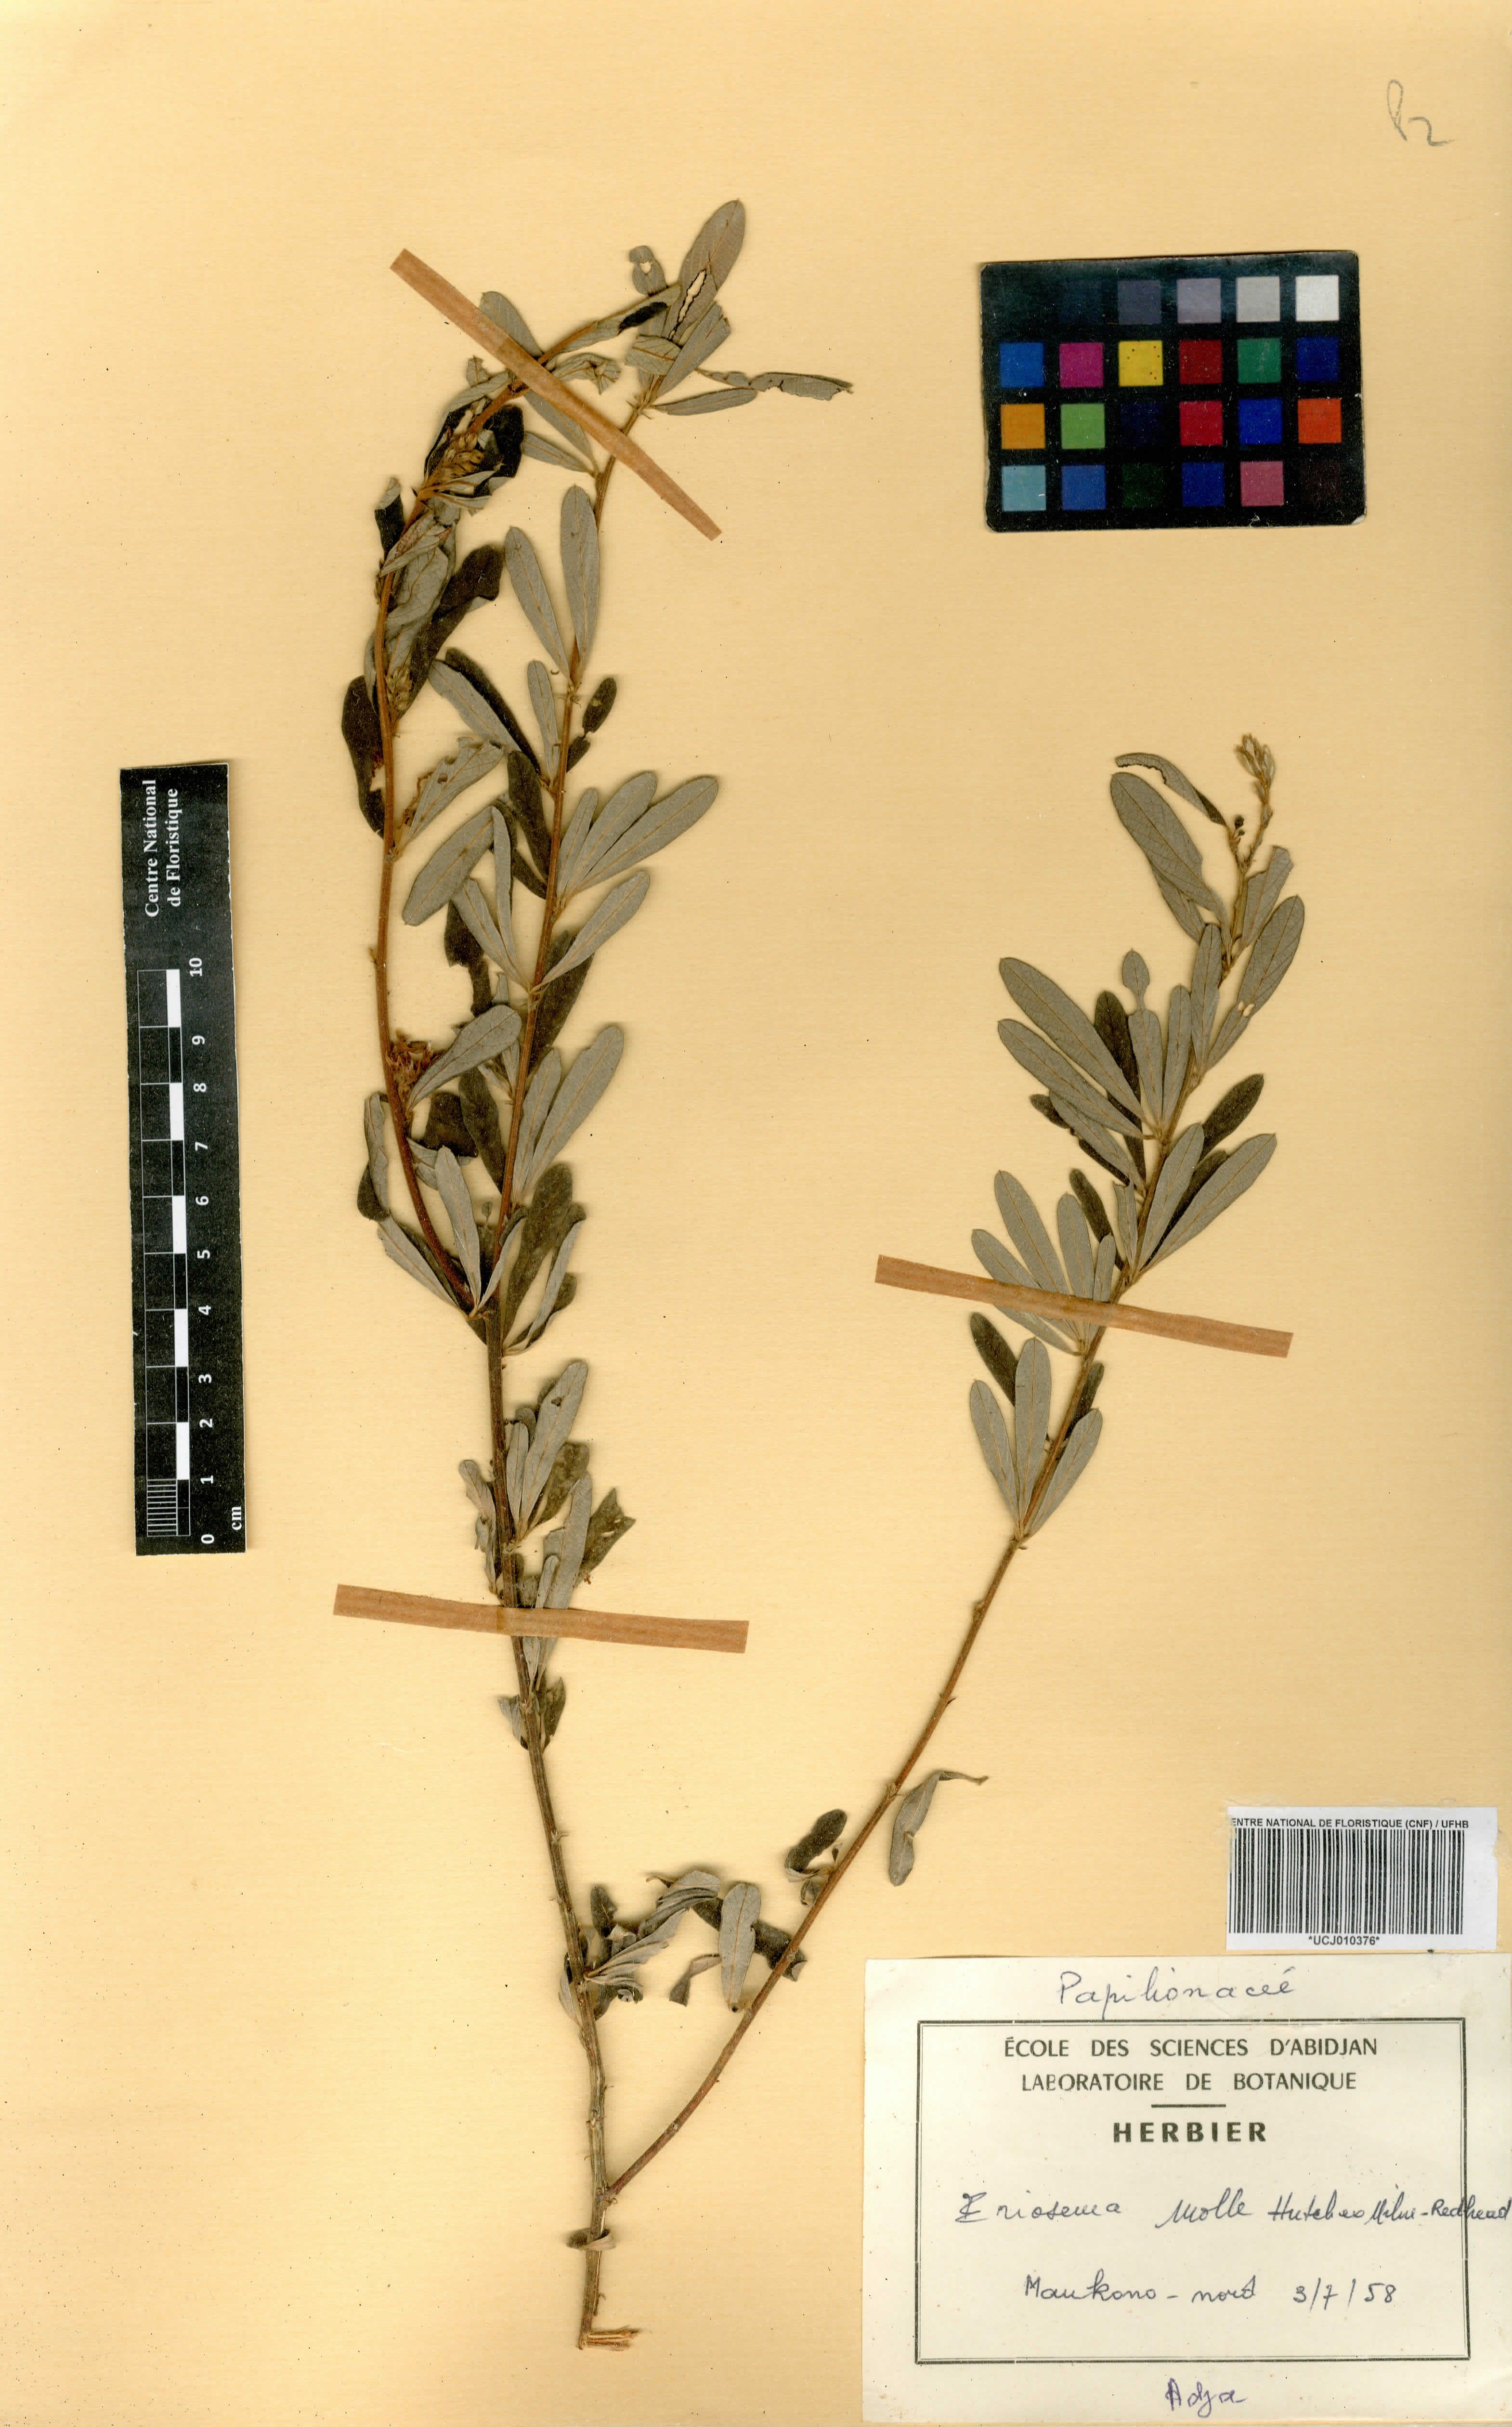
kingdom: Plantae
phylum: Tracheophyta
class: Magnoliopsida
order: Fabales
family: Fabaceae
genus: Eriosema
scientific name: Eriosema molle
